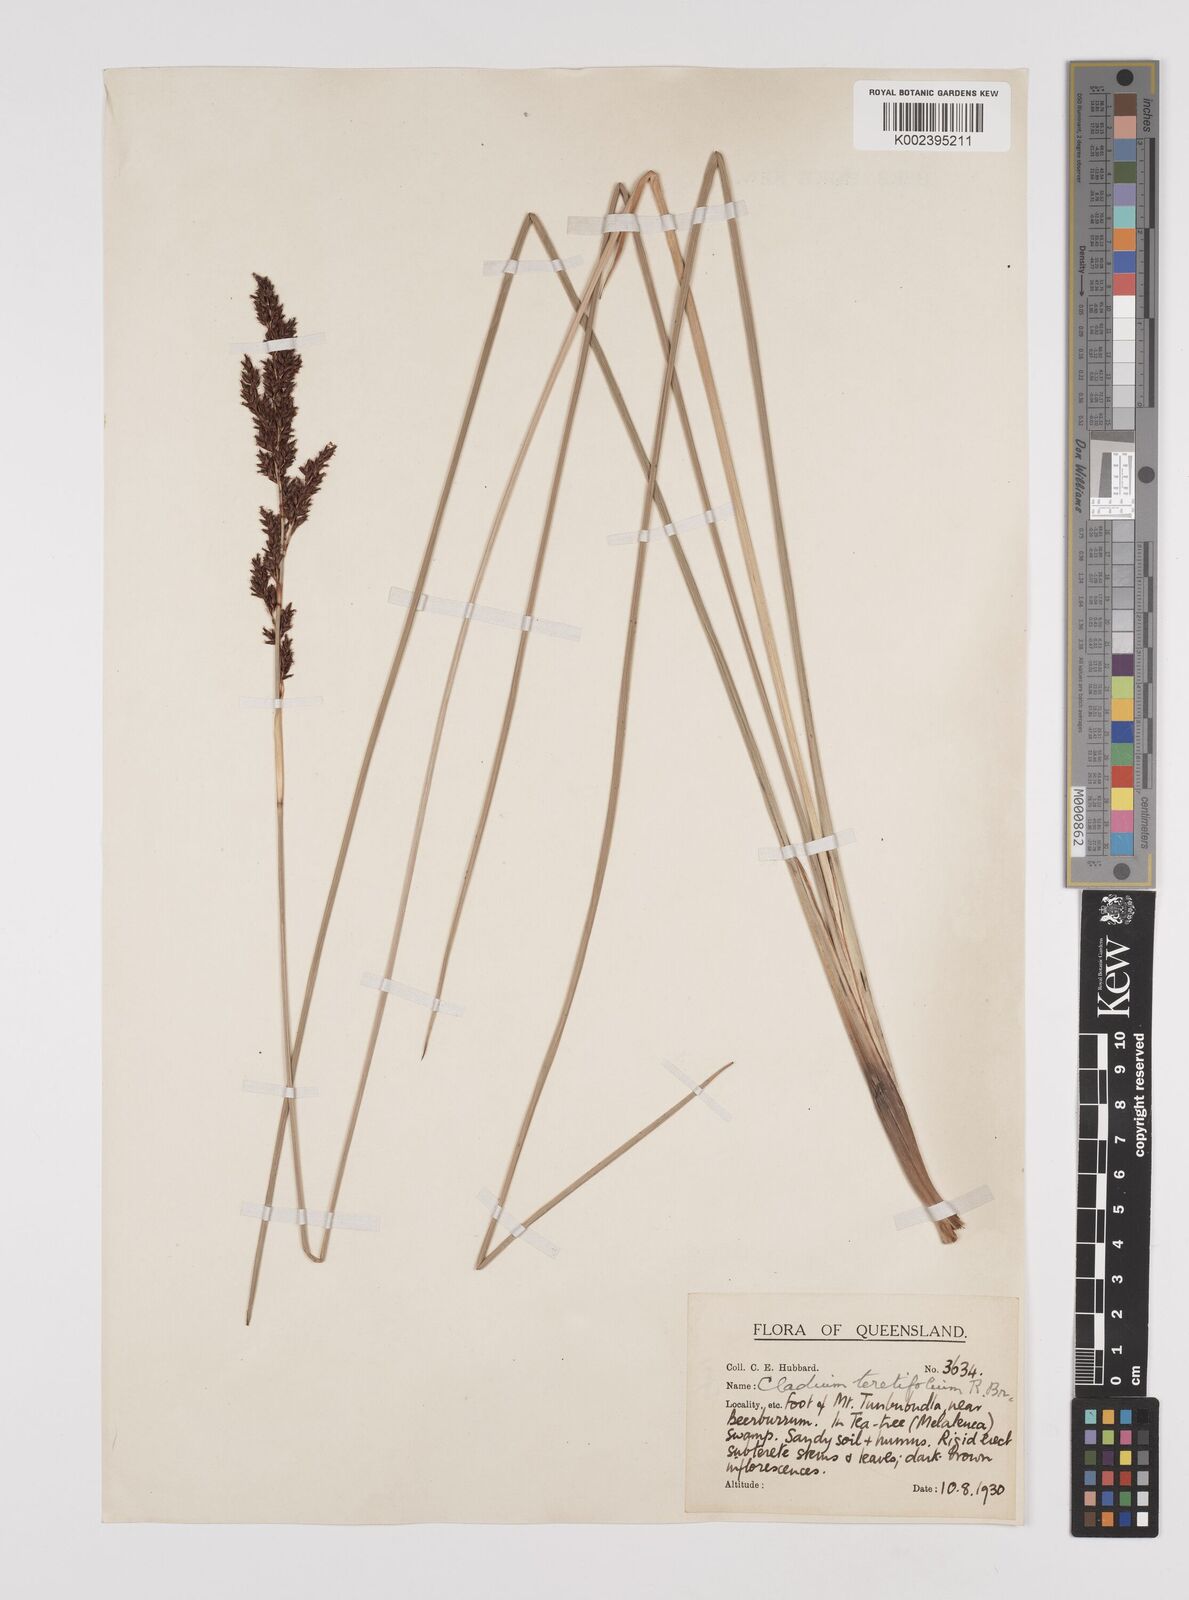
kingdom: Plantae
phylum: Tracheophyta
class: Liliopsida
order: Poales
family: Cyperaceae
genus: Machaerina
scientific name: Machaerina teretifolia
